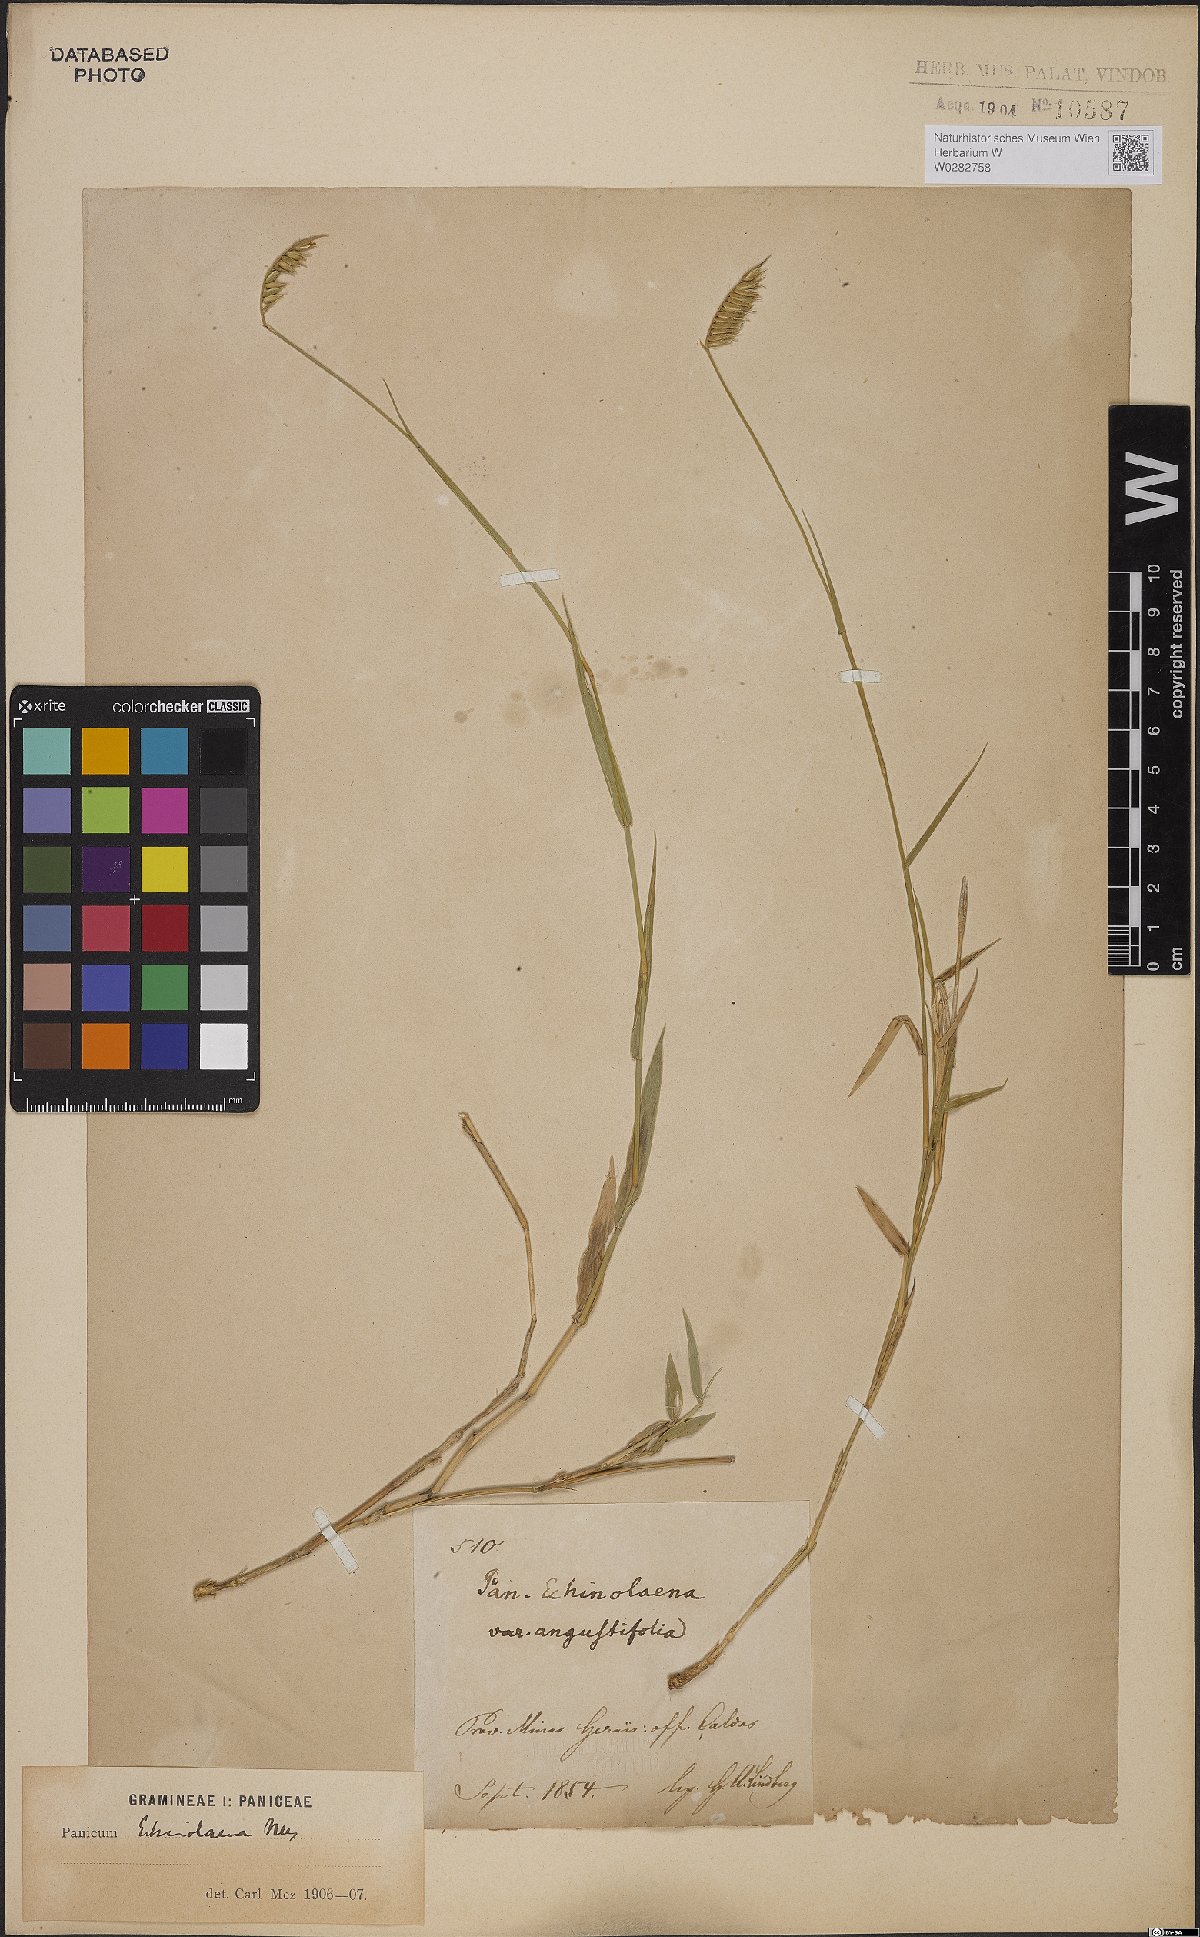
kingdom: Plantae
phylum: Tracheophyta
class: Liliopsida
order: Poales
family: Poaceae
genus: Echinolaena
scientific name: Echinolaena inflexa
